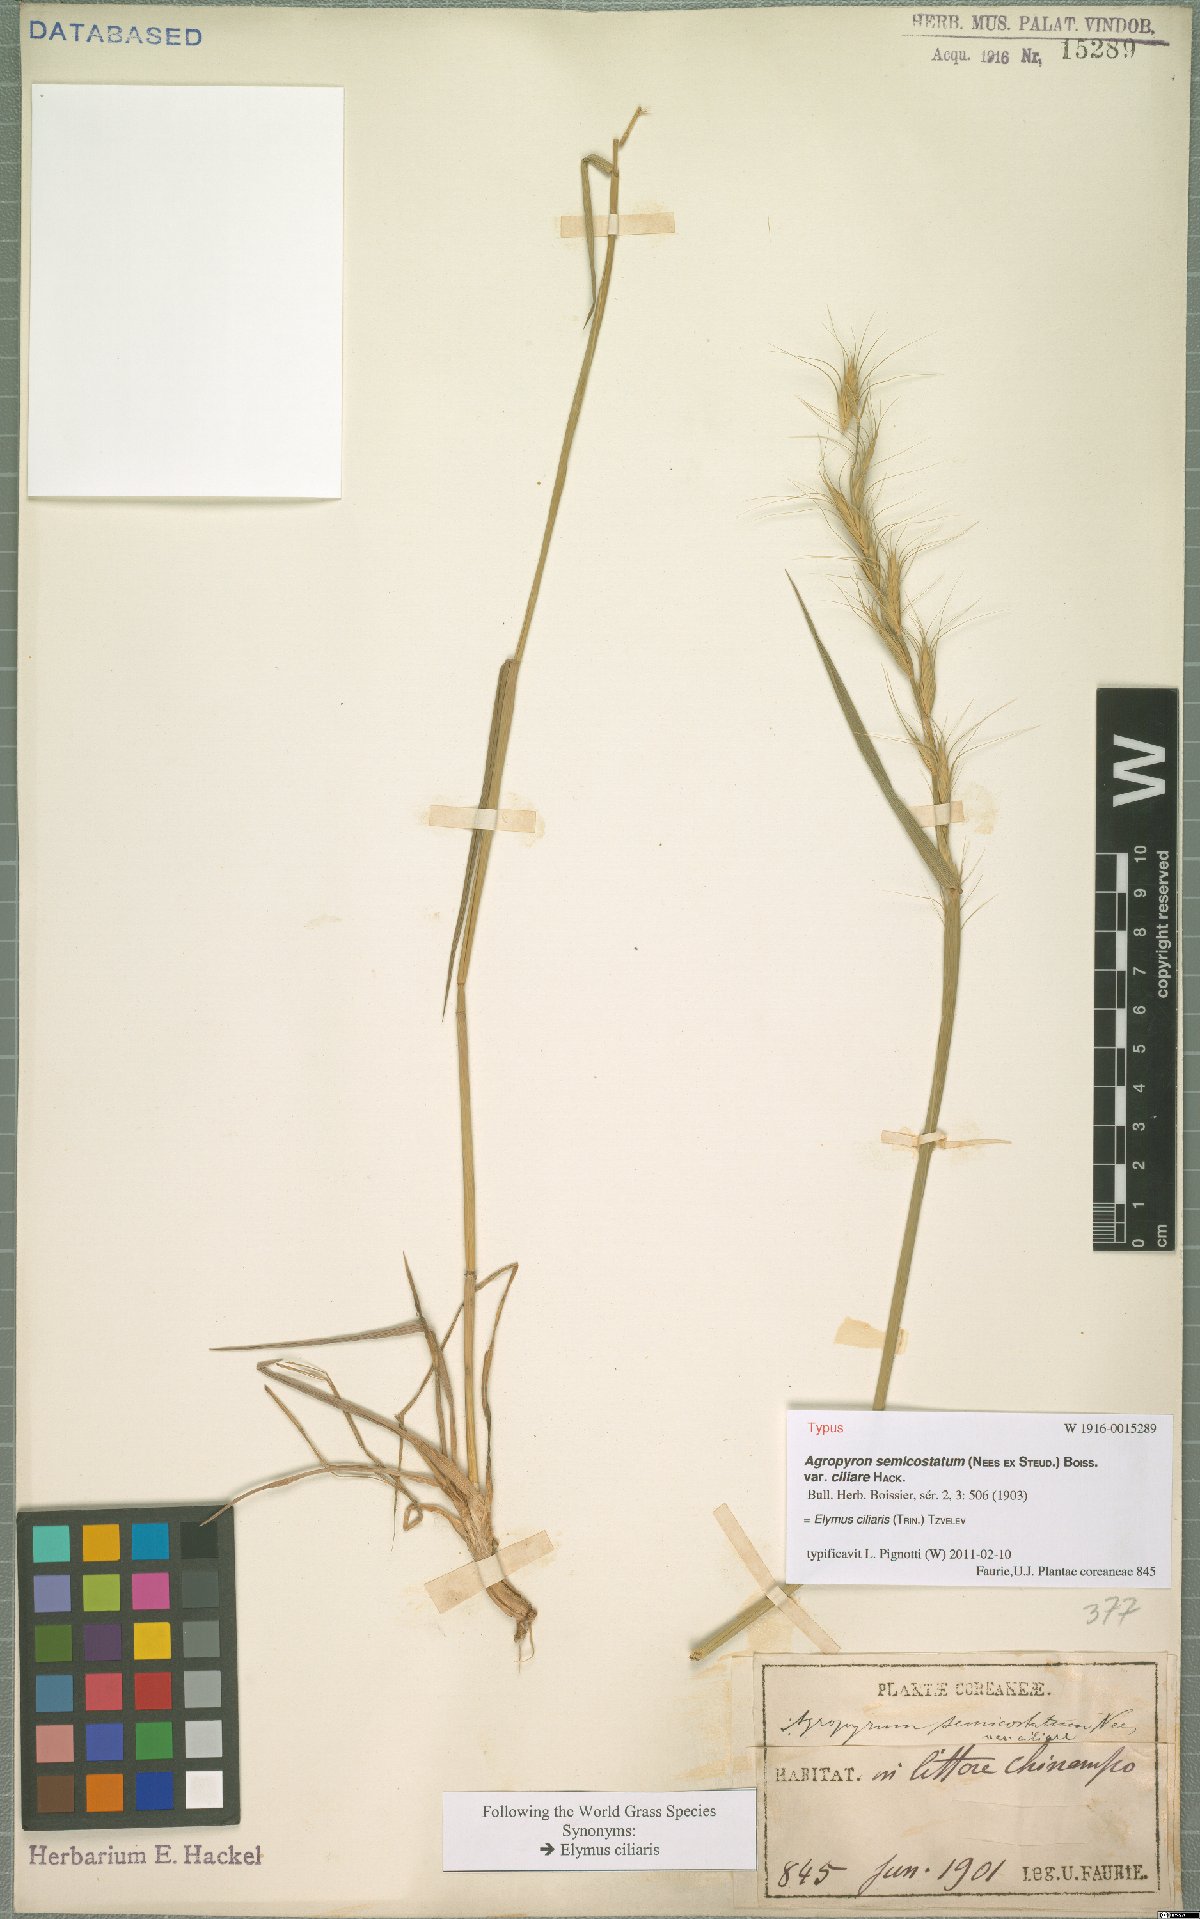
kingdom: Plantae
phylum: Tracheophyta
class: Liliopsida
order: Poales
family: Poaceae
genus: Elymus
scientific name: Elymus ciliaris
